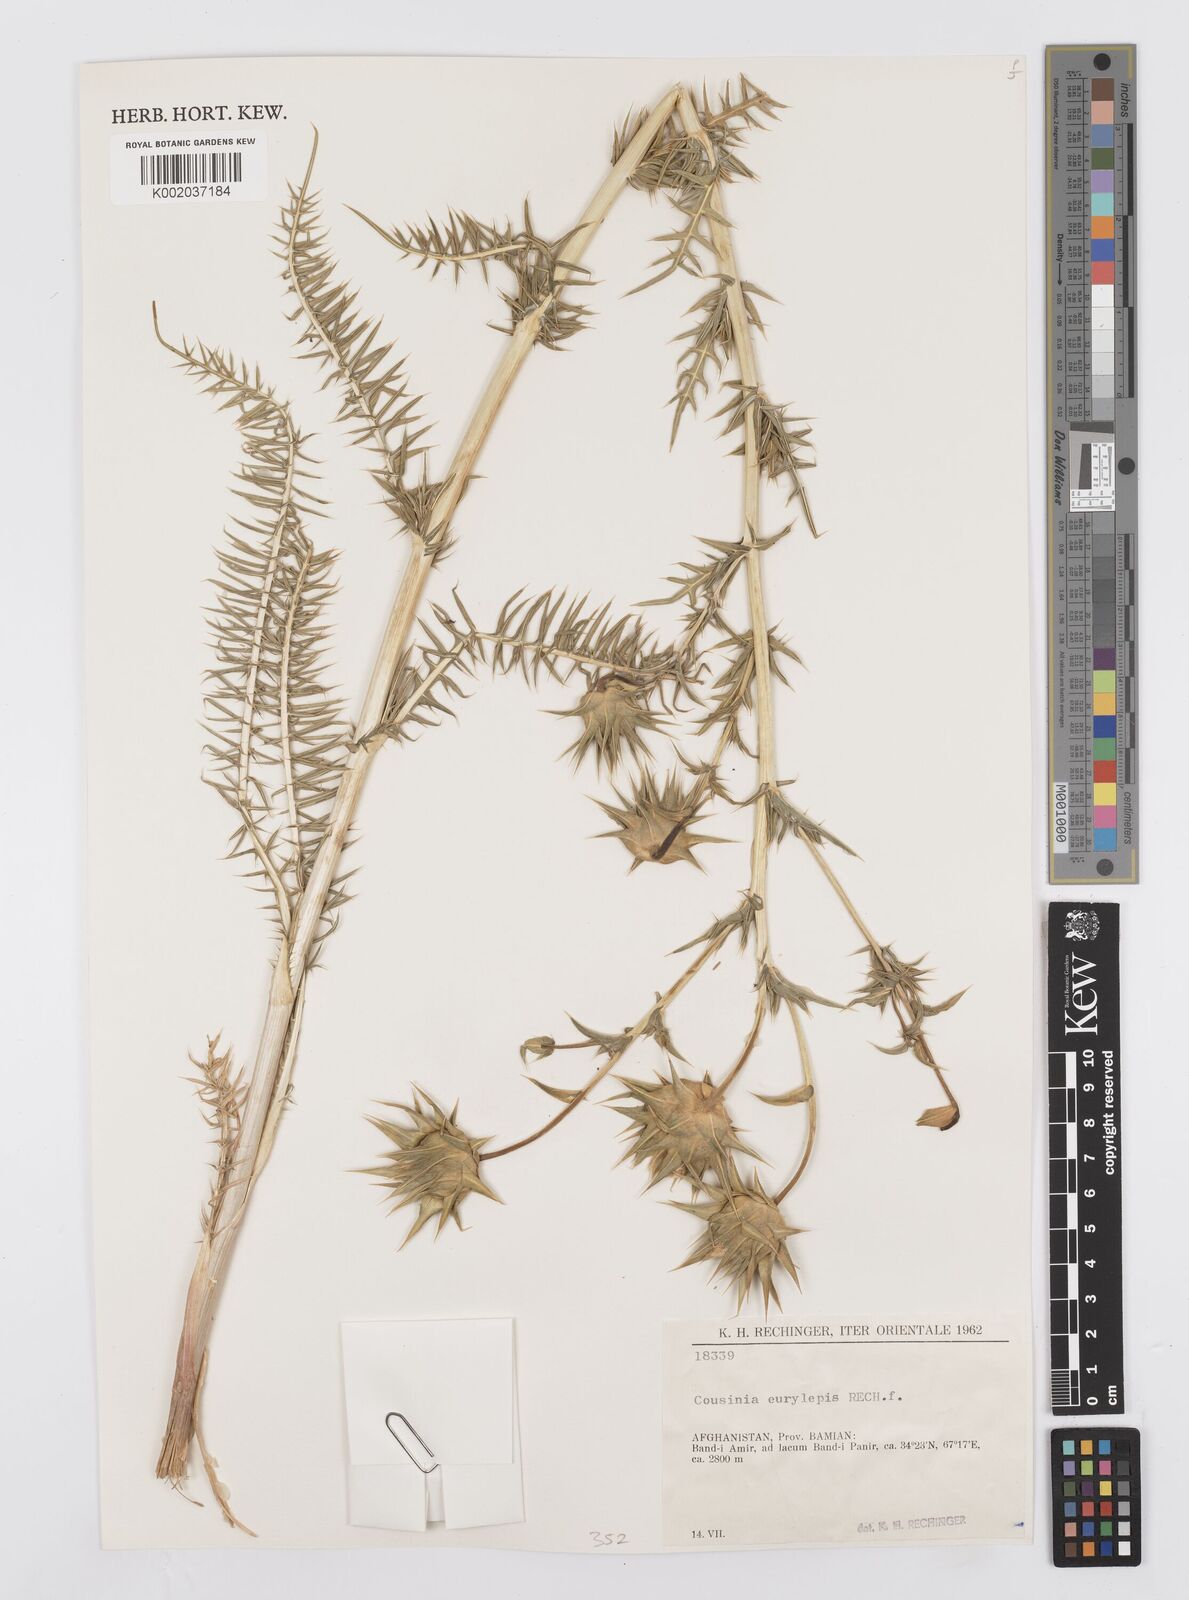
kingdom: Plantae
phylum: Tracheophyta
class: Magnoliopsida
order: Asterales
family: Asteraceae
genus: Cousinia
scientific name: Cousinia eurylepis
